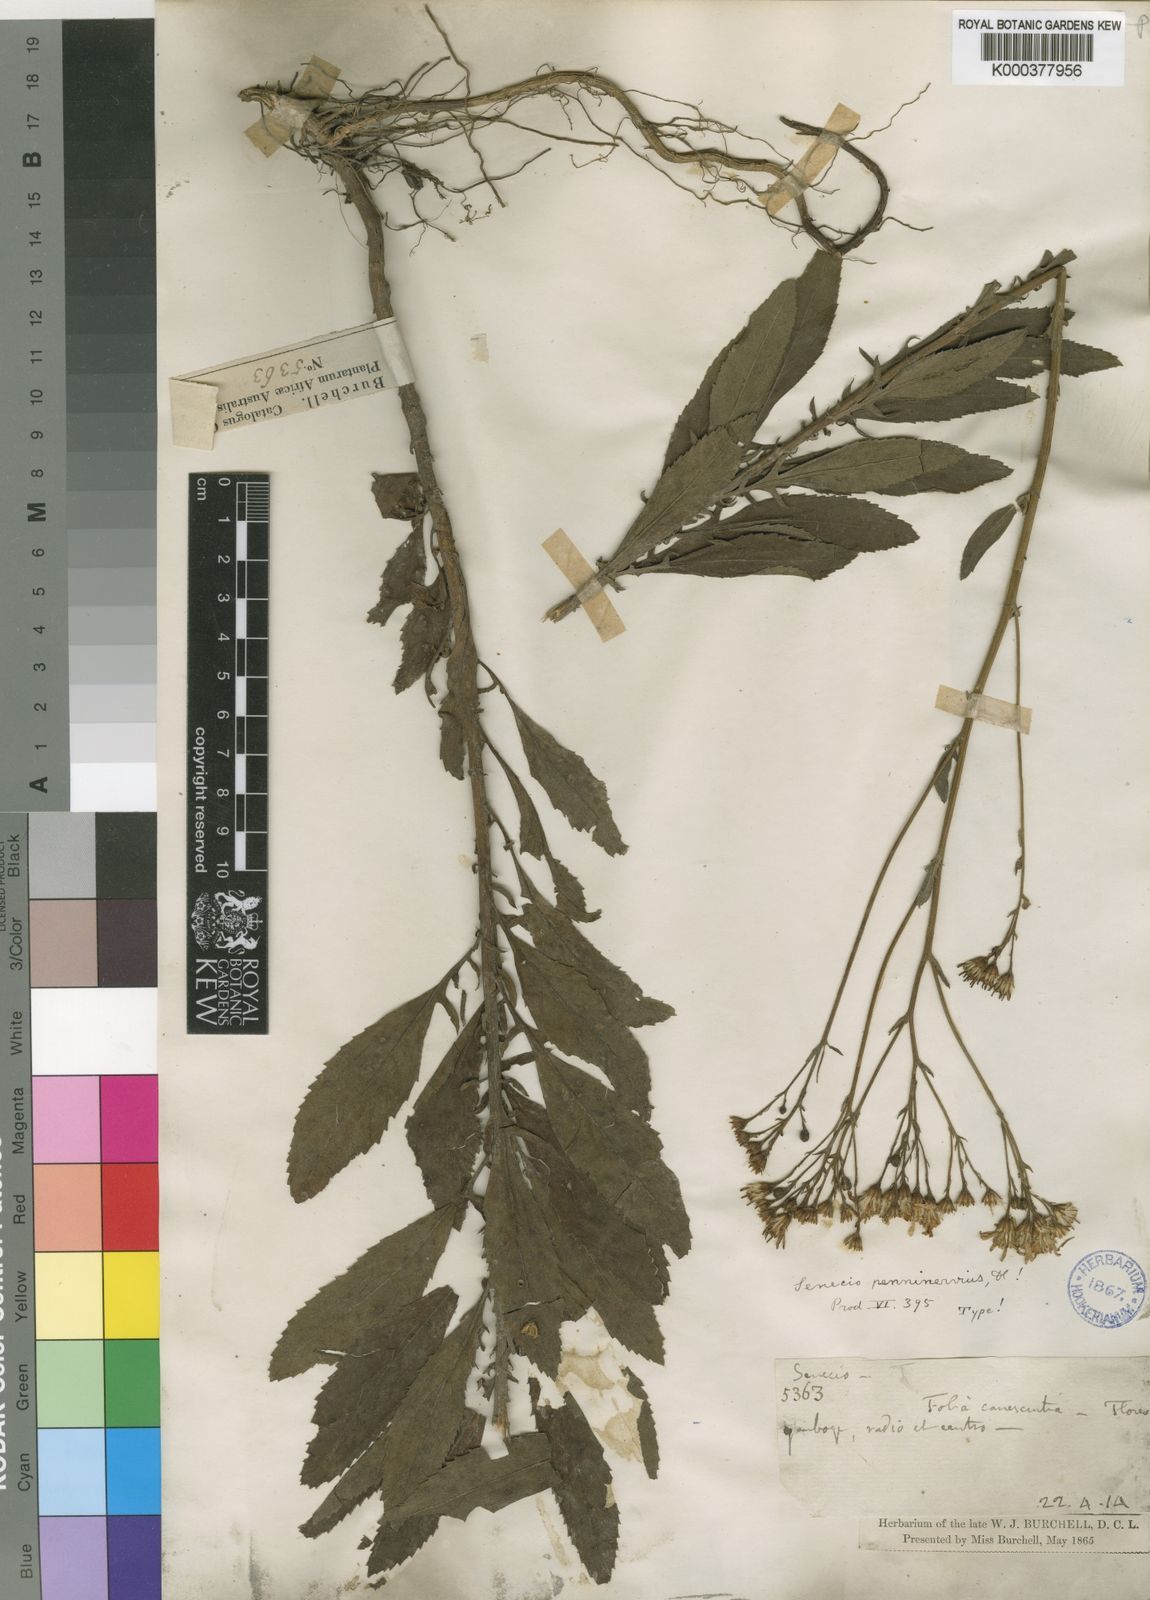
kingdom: Plantae
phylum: Tracheophyta
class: Magnoliopsida
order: Asterales
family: Asteraceae
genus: Senecio
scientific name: Senecio penninervius
